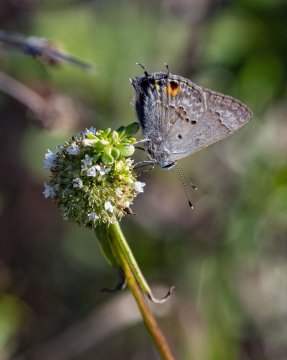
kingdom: Animalia
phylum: Arthropoda
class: Insecta
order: Lepidoptera
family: Lycaenidae
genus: Callicista
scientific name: Callicista columella
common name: Mallow Scrub-Hairstreak
